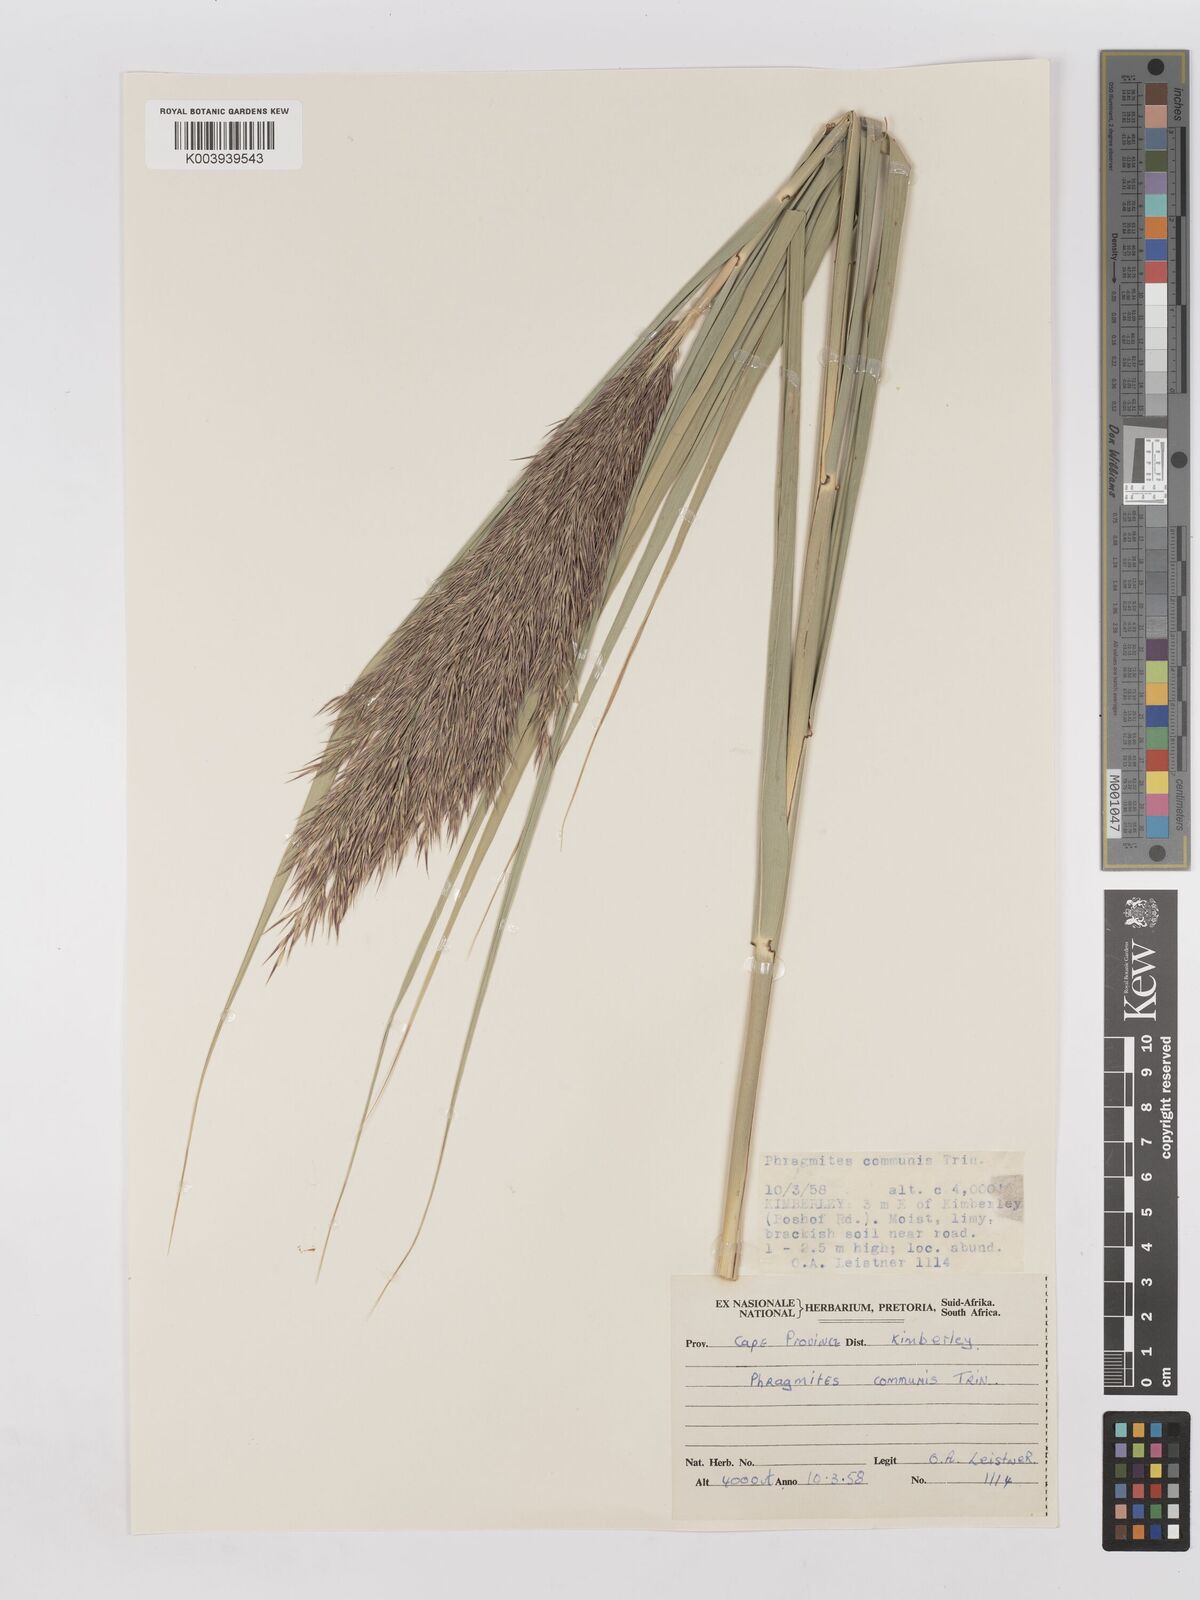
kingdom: Plantae
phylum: Tracheophyta
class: Liliopsida
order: Poales
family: Poaceae
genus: Phragmites
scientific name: Phragmites australis
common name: Common reed
